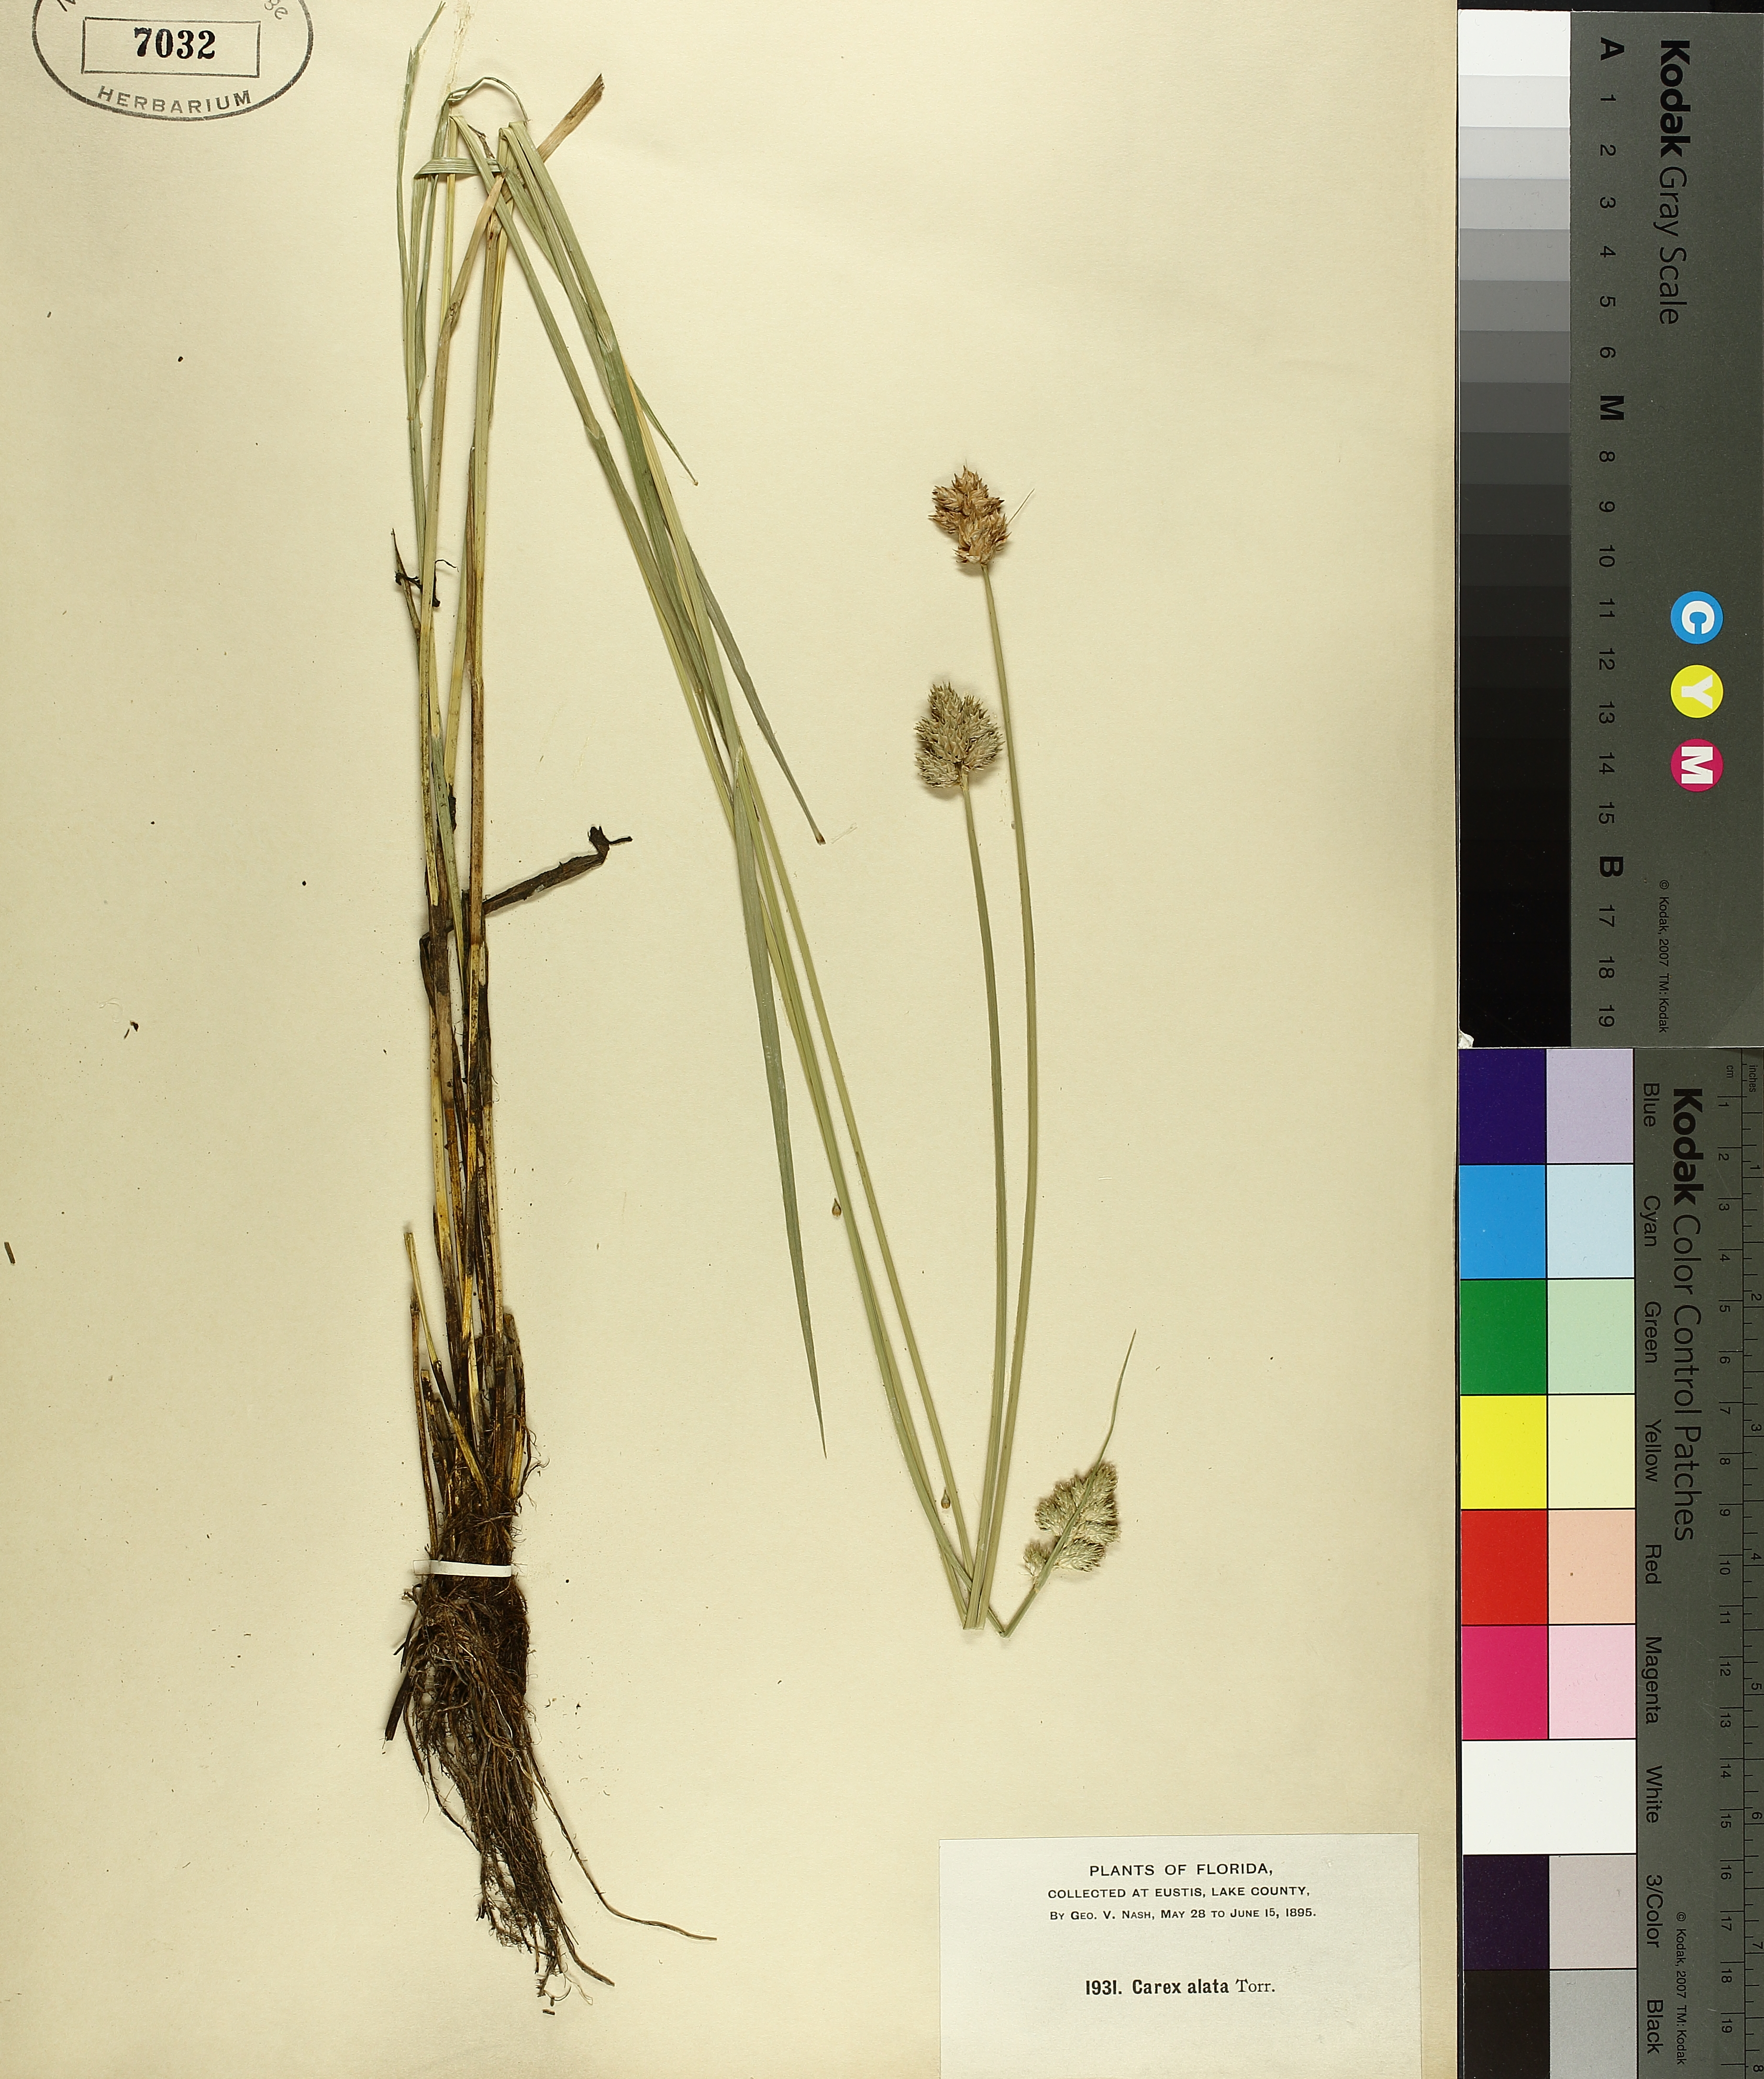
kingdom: Plantae
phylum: Tracheophyta
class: Liliopsida
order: Poales
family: Cyperaceae
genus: Carex
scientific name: Carex alata
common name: Broad-winged sedge
